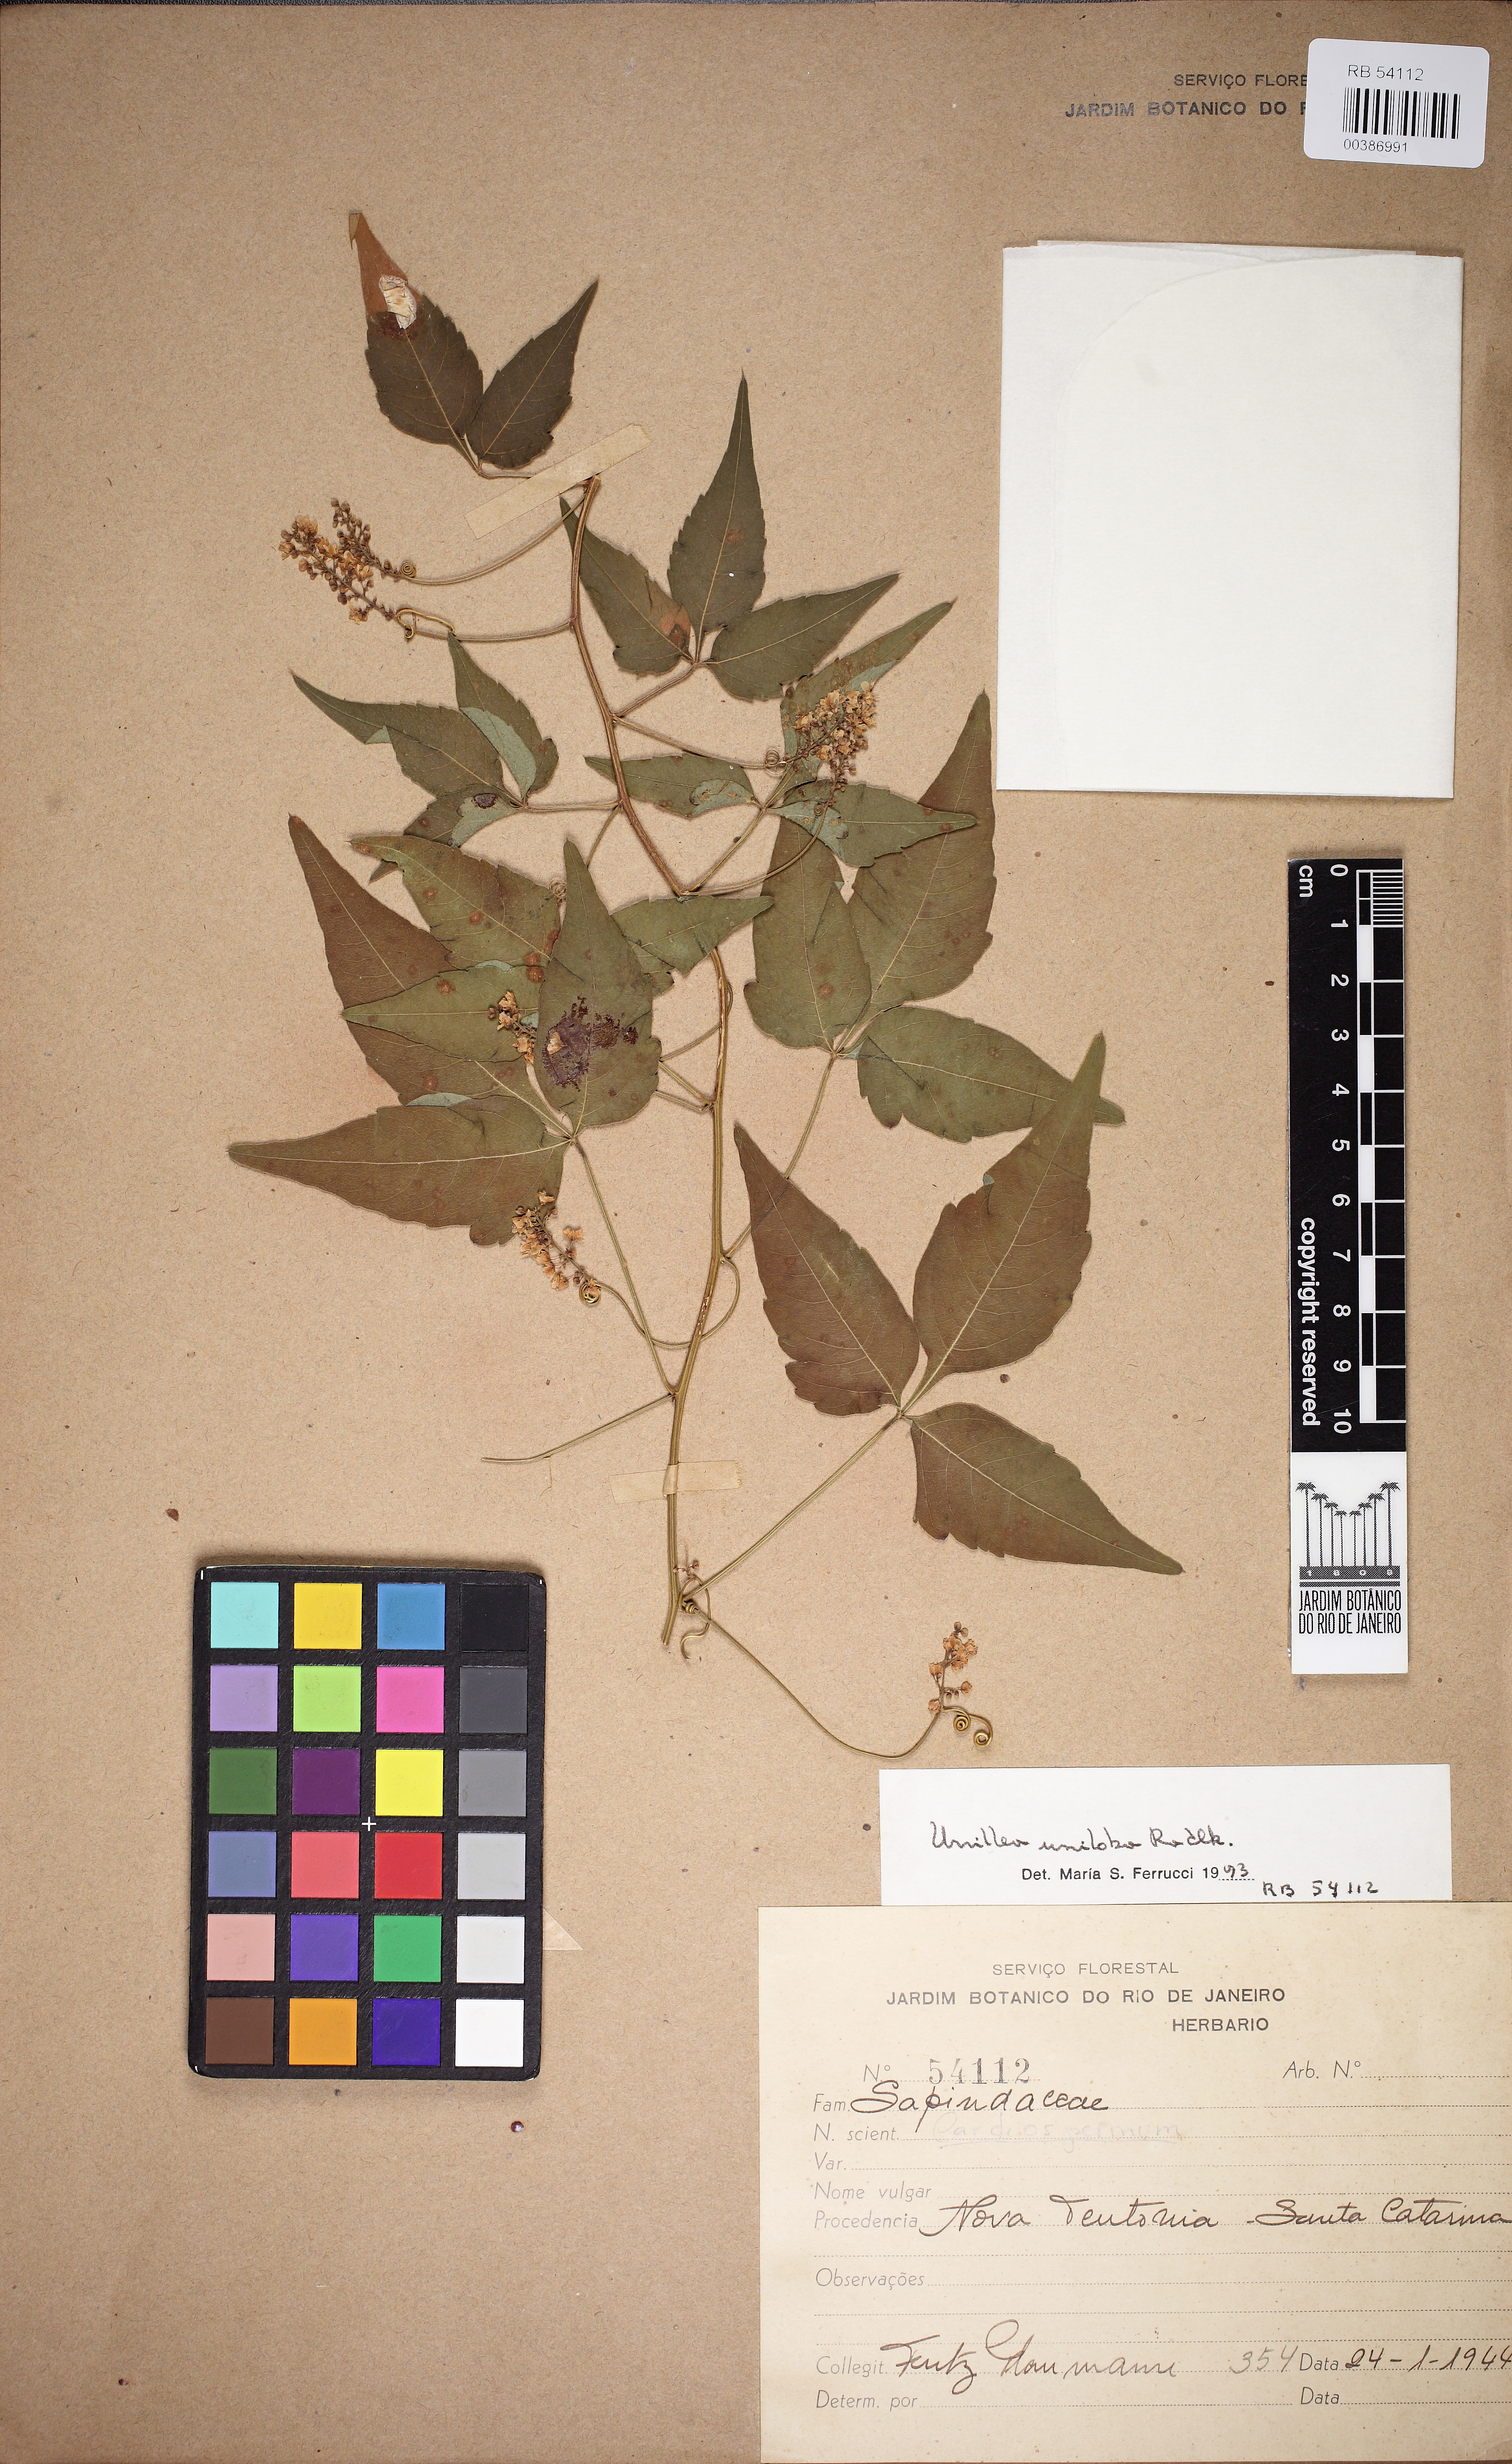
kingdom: Plantae
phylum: Tracheophyta
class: Magnoliopsida
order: Sapindales
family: Sapindaceae
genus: Urvillea
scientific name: Urvillea uniloba
